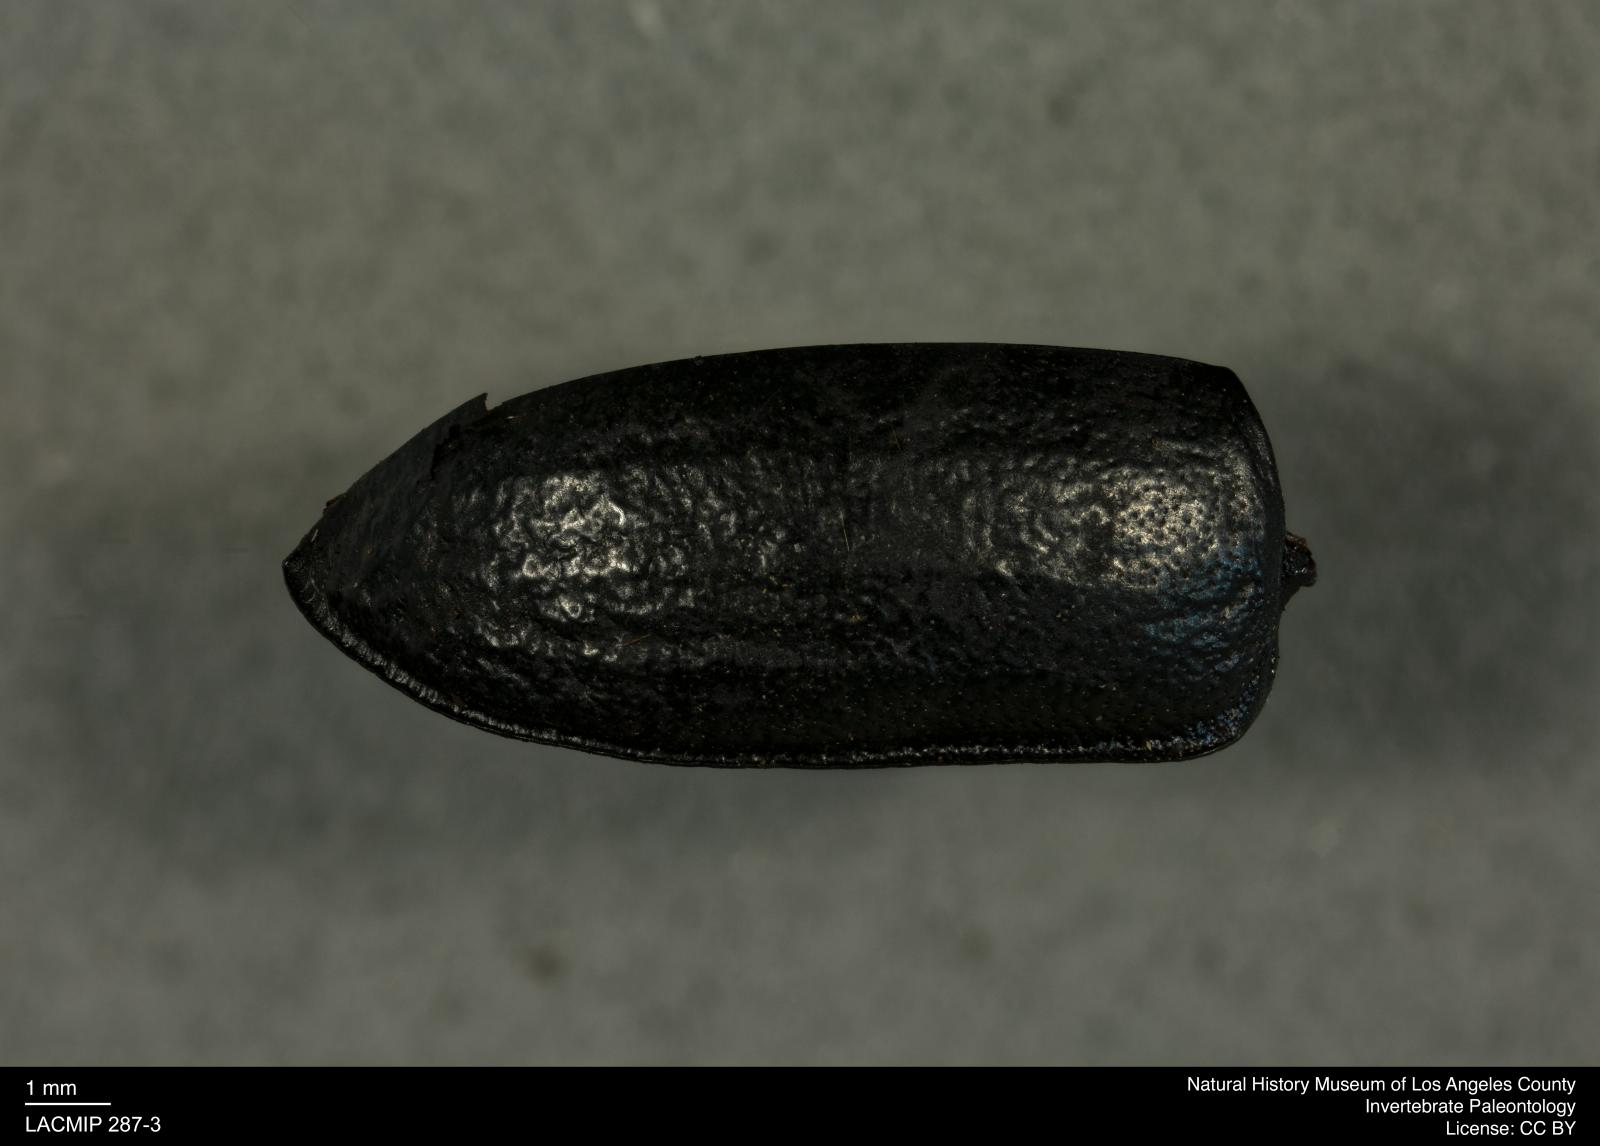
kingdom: Animalia
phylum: Arthropoda
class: Insecta
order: Coleoptera
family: Tenebrionidae
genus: Coniontis
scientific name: Coniontis abdominalis
